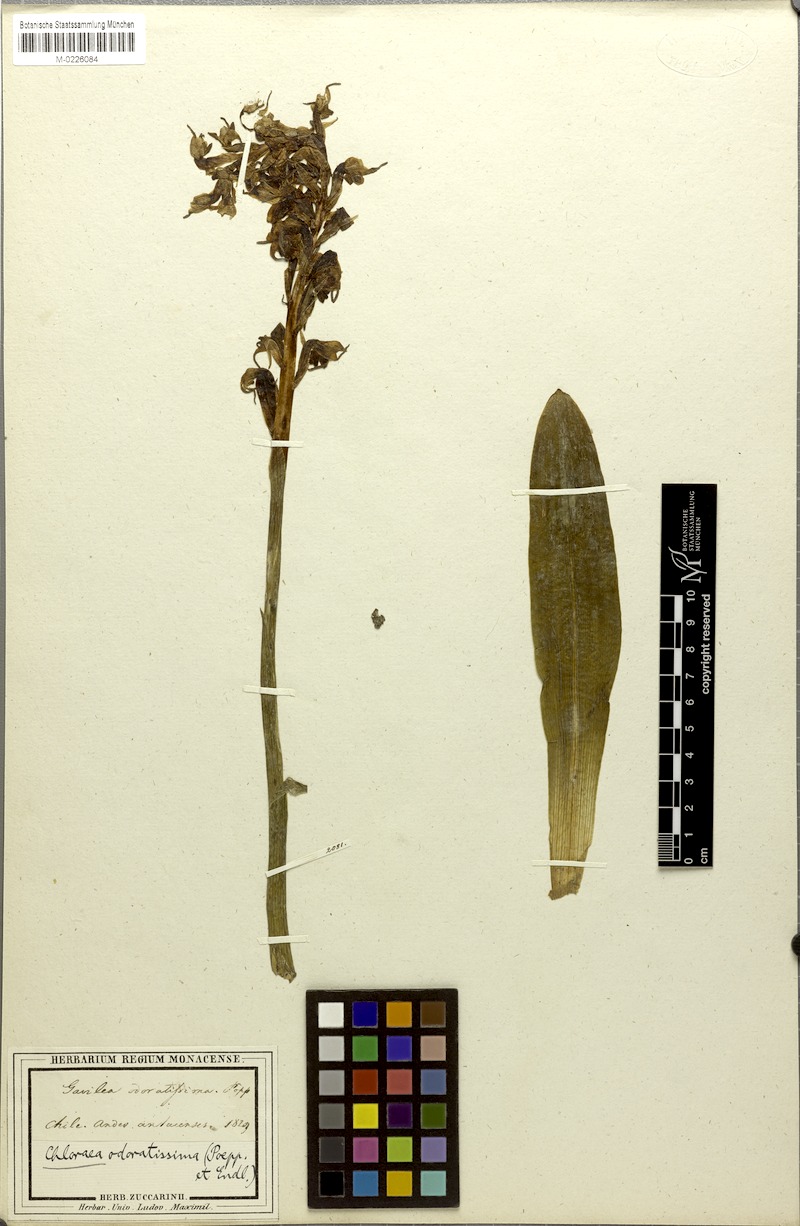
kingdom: Plantae
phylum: Tracheophyta
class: Liliopsida
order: Asparagales
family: Orchidaceae
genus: Gavilea
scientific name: Gavilea odoratissima
